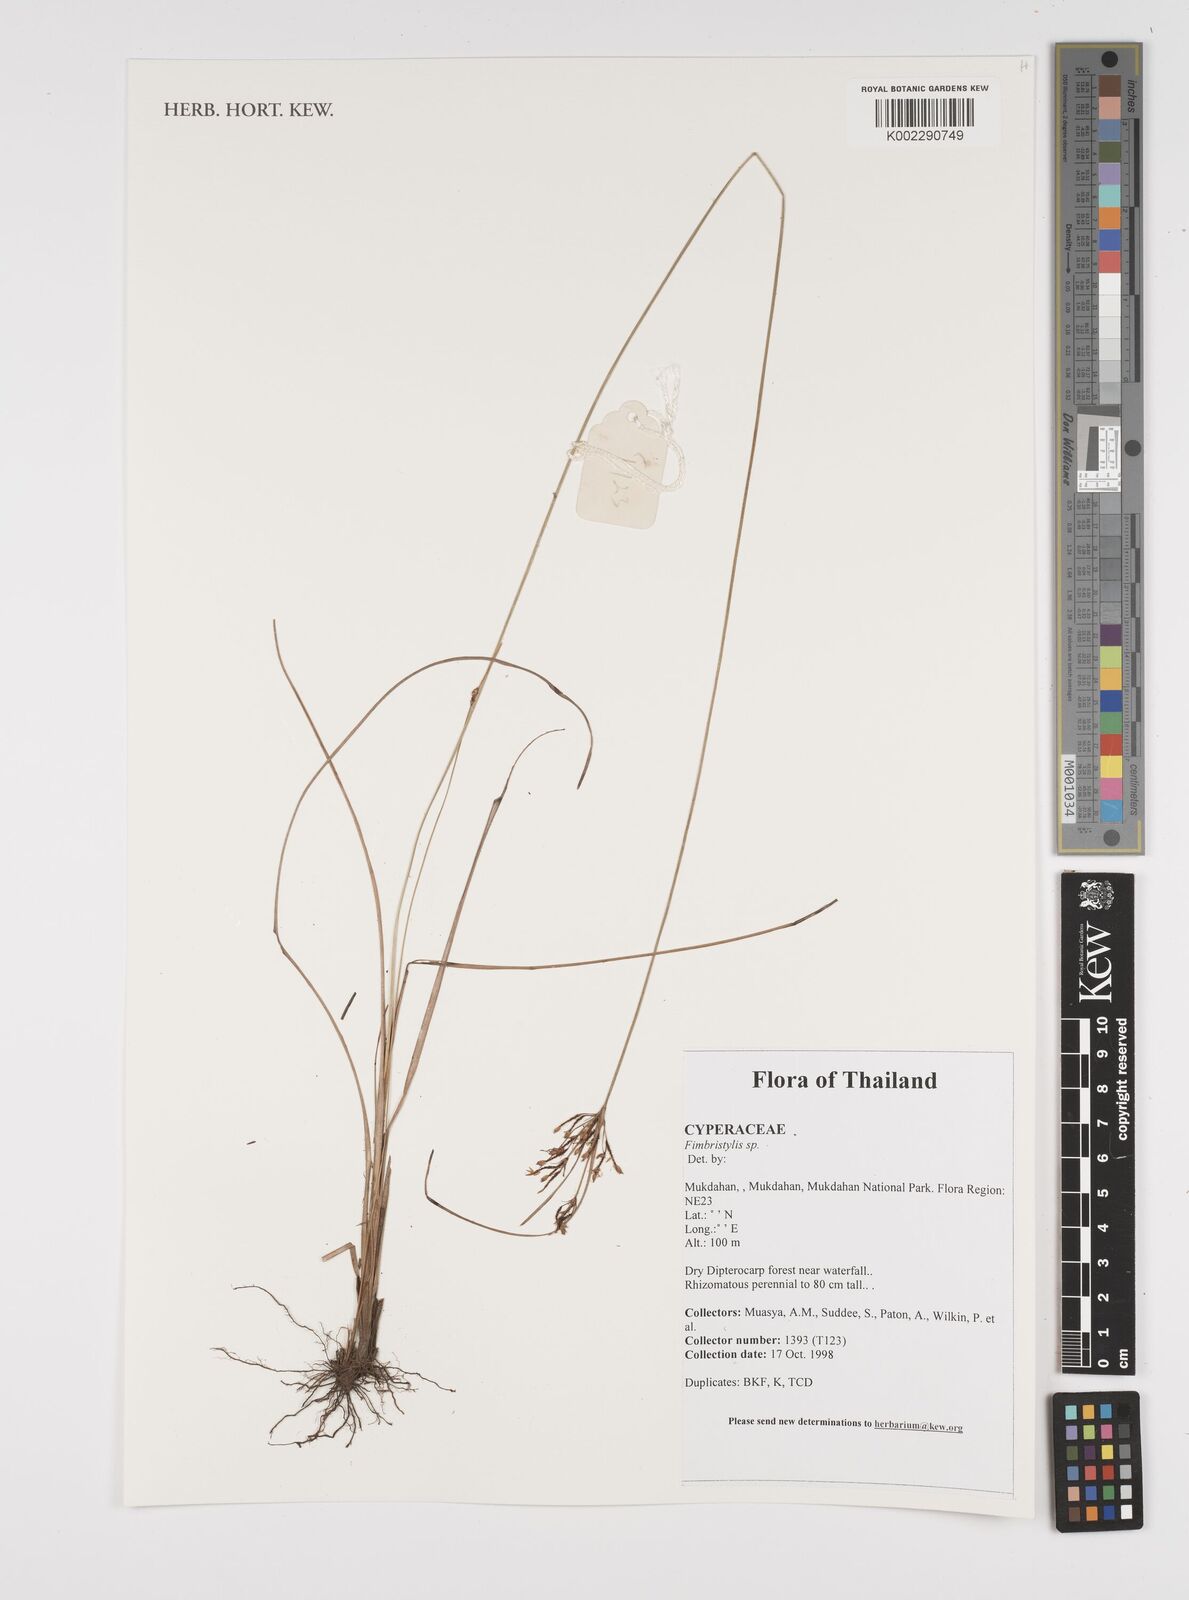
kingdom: Plantae
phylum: Tracheophyta
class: Liliopsida
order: Poales
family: Cyperaceae
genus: Fimbristylis
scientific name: Fimbristylis
